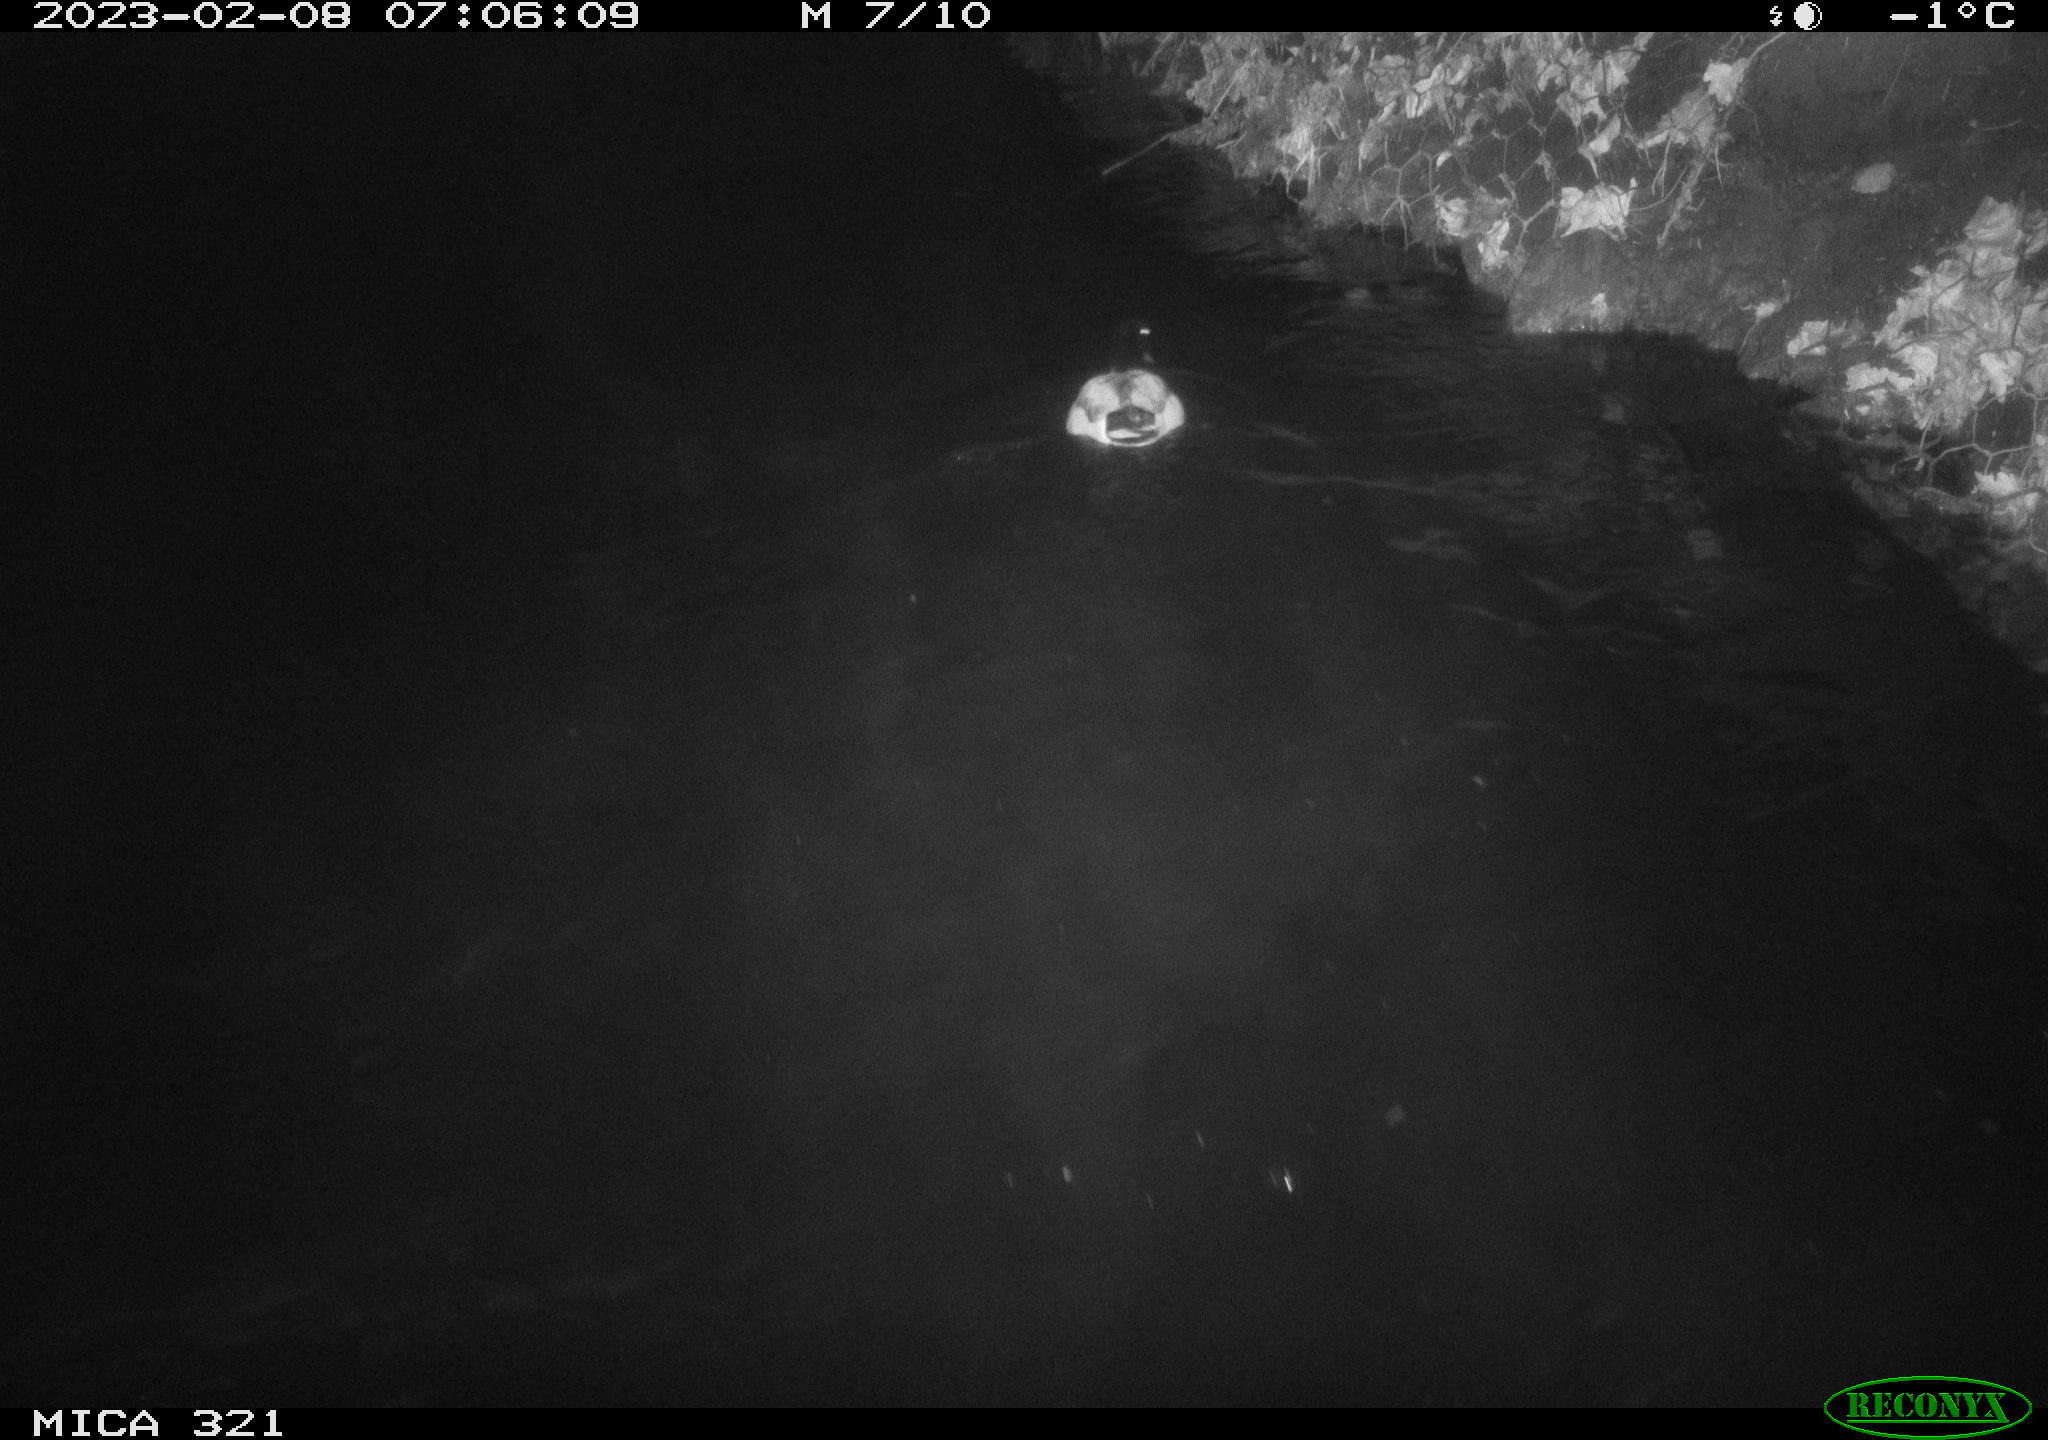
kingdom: Animalia
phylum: Chordata
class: Aves
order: Anseriformes
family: Anatidae
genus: Anas
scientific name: Anas
